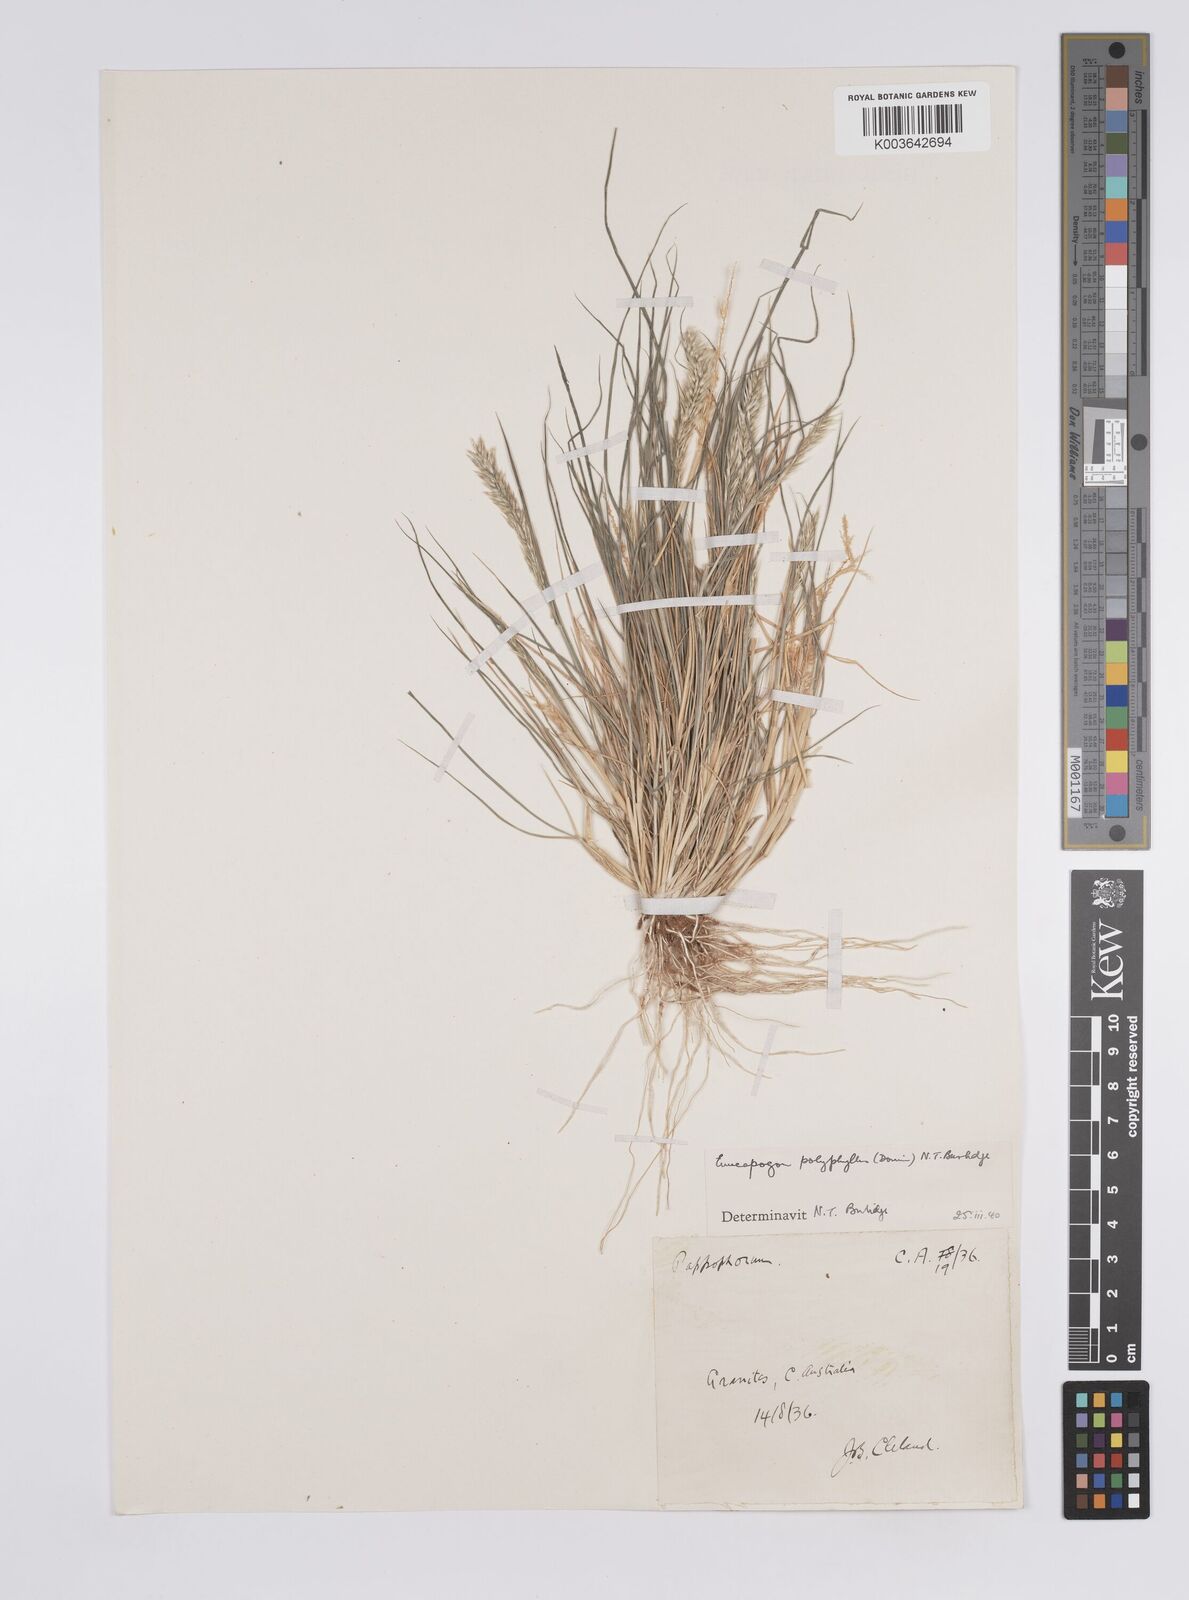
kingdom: Plantae
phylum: Tracheophyta
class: Liliopsida
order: Poales
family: Poaceae
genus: Enneapogon
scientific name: Enneapogon polyphyllus
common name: Leafy nineawn
